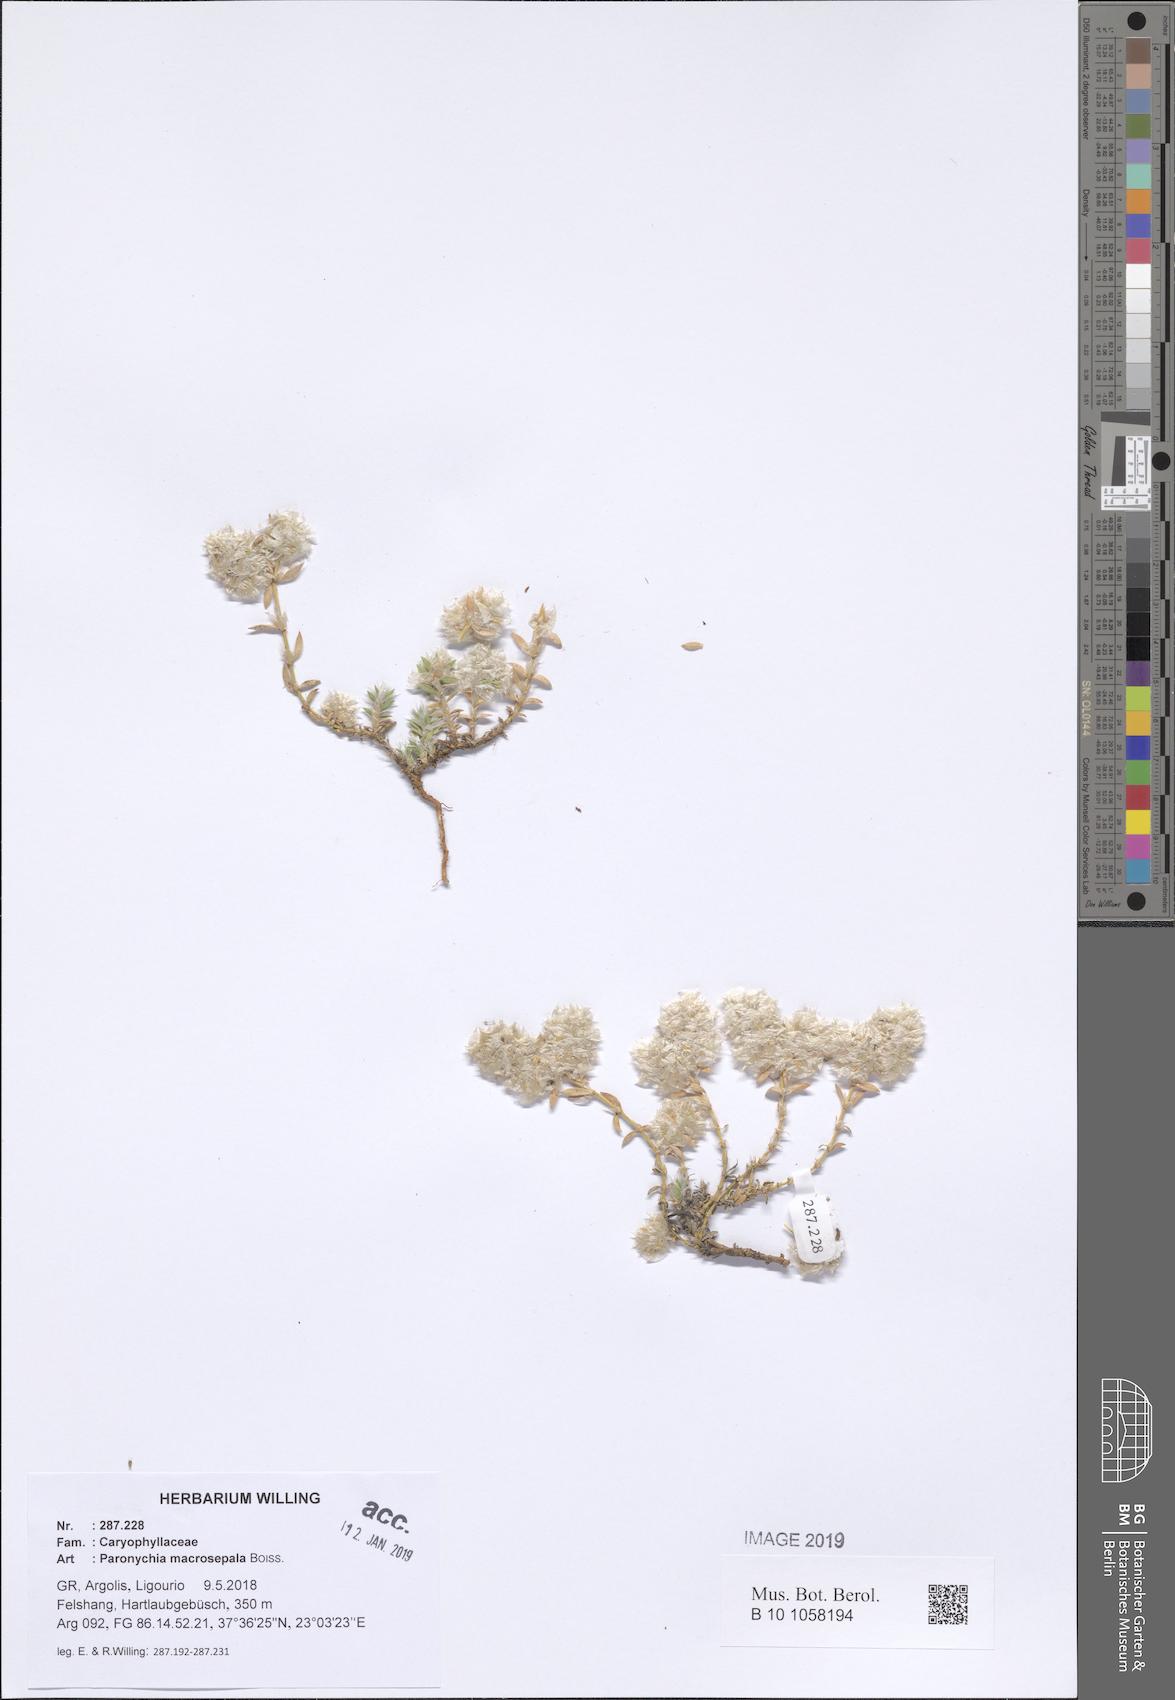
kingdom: Plantae
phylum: Tracheophyta
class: Magnoliopsida
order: Caryophyllales
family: Caryophyllaceae
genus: Paronychia
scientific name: Paronychia macrosepala
